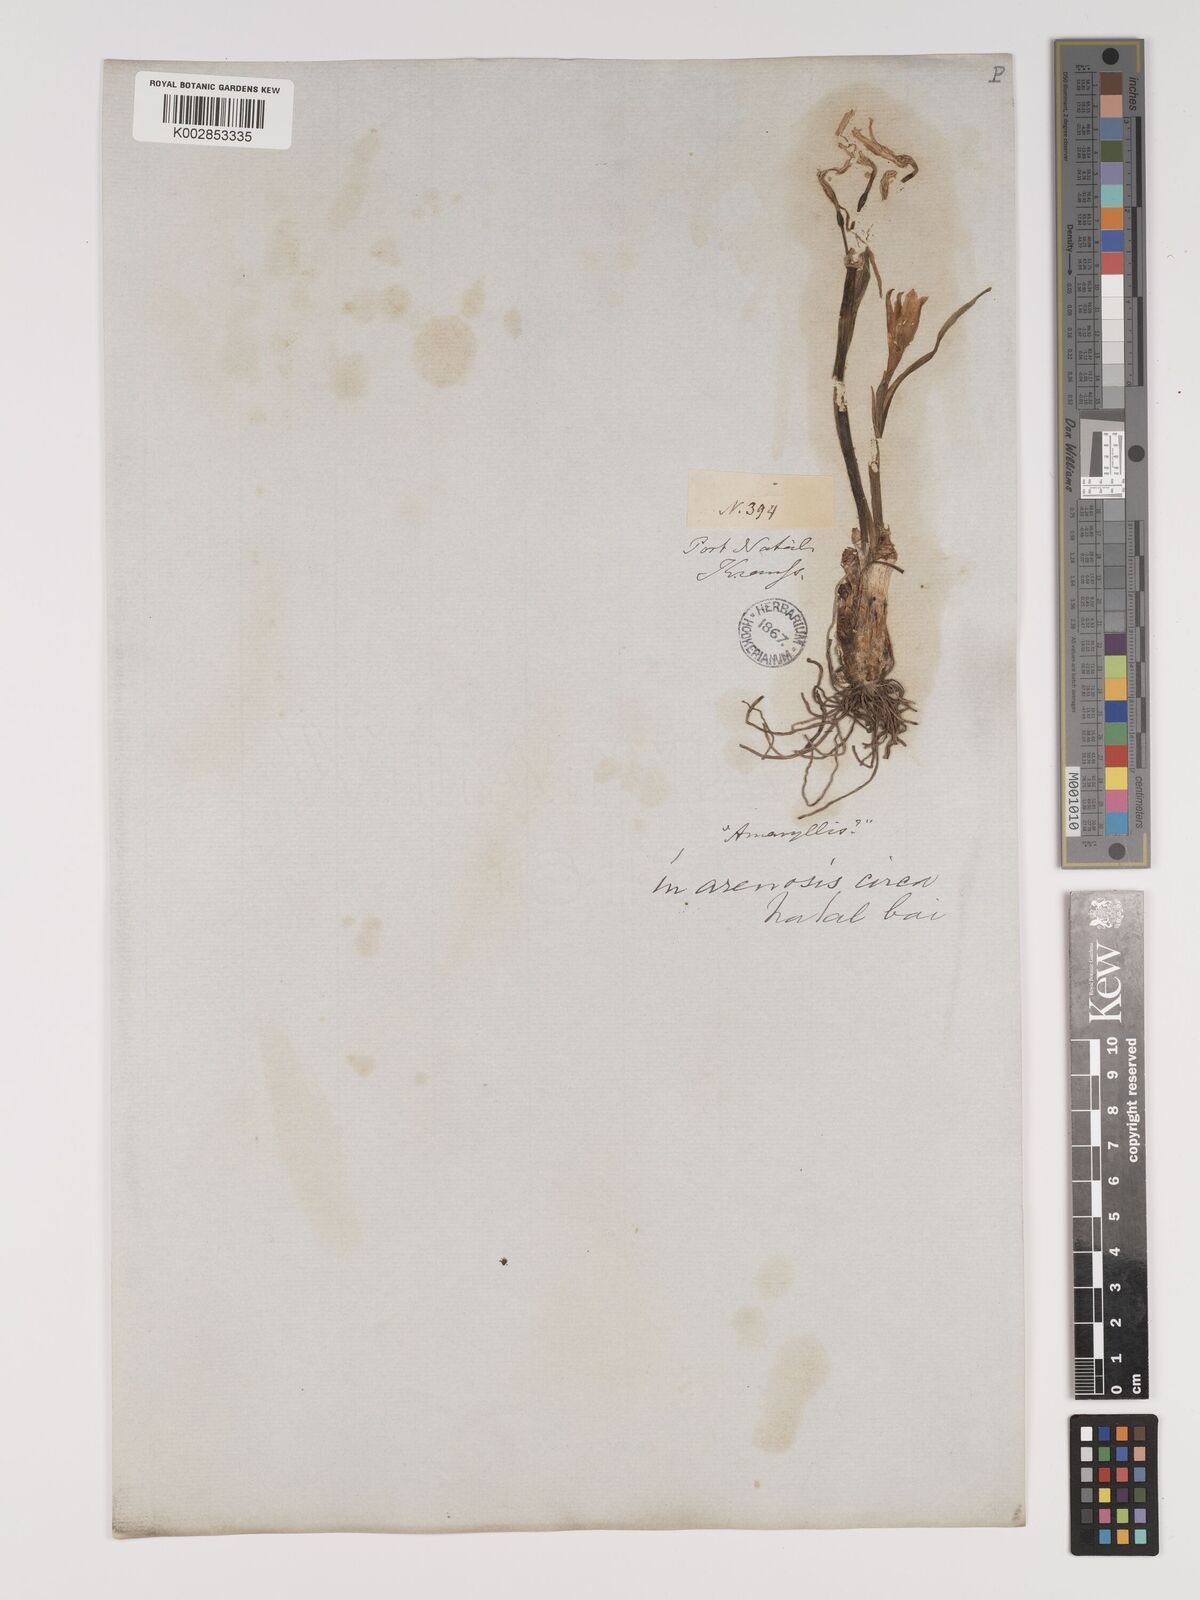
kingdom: Plantae
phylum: Tracheophyta
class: Liliopsida
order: Asparagales
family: Amaryllidaceae
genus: Cyrtanthus
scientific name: Cyrtanthus breviflorus
